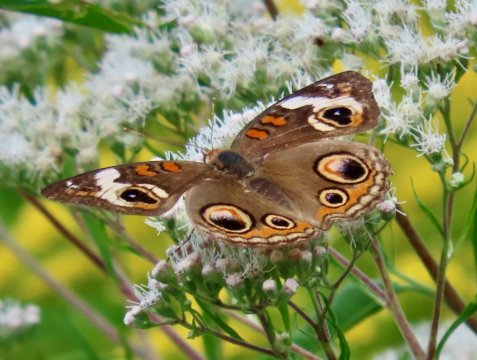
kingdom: Animalia
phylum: Arthropoda
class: Insecta
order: Lepidoptera
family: Nymphalidae
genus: Junonia
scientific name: Junonia coenia
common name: Common Buckeye
